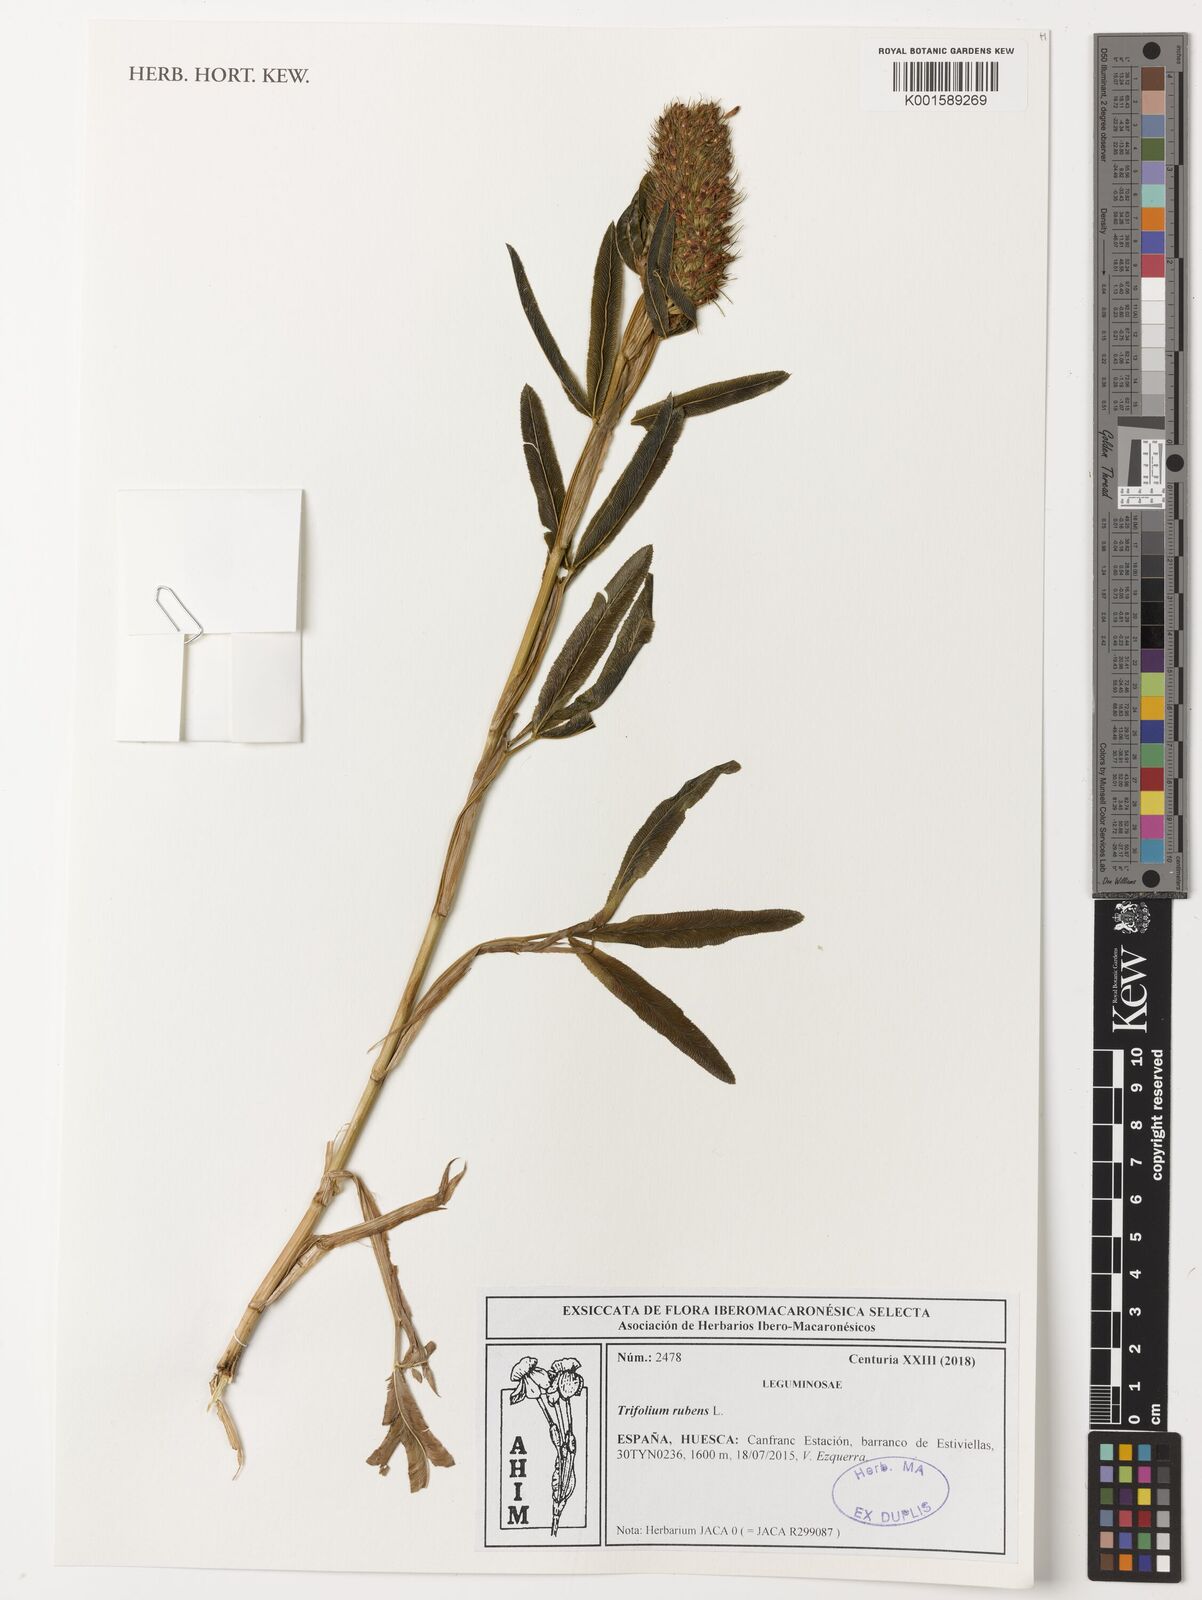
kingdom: Plantae
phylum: Tracheophyta
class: Magnoliopsida
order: Fabales
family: Fabaceae
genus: Trifolium
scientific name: Trifolium rubens
